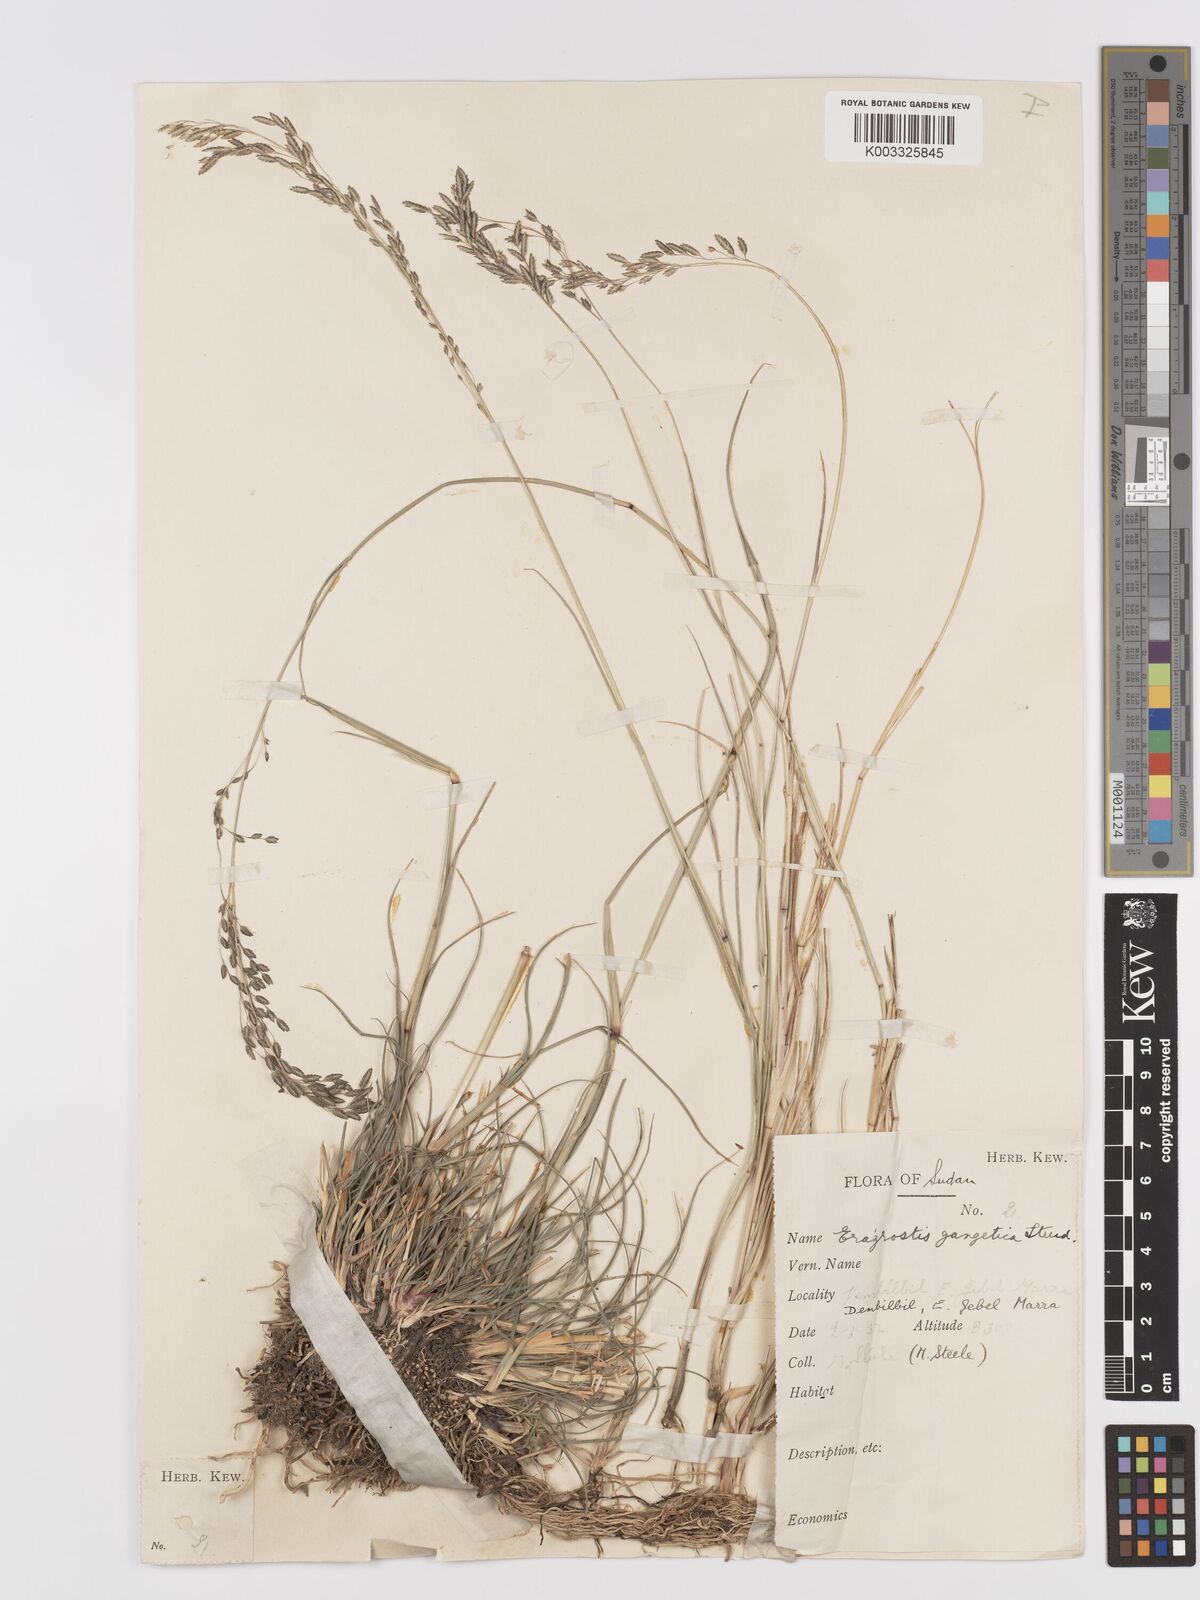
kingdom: Plantae
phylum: Tracheophyta
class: Liliopsida
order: Poales
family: Poaceae
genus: Eragrostis
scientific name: Eragrostis atrovirens
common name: Thalia lovegrass
